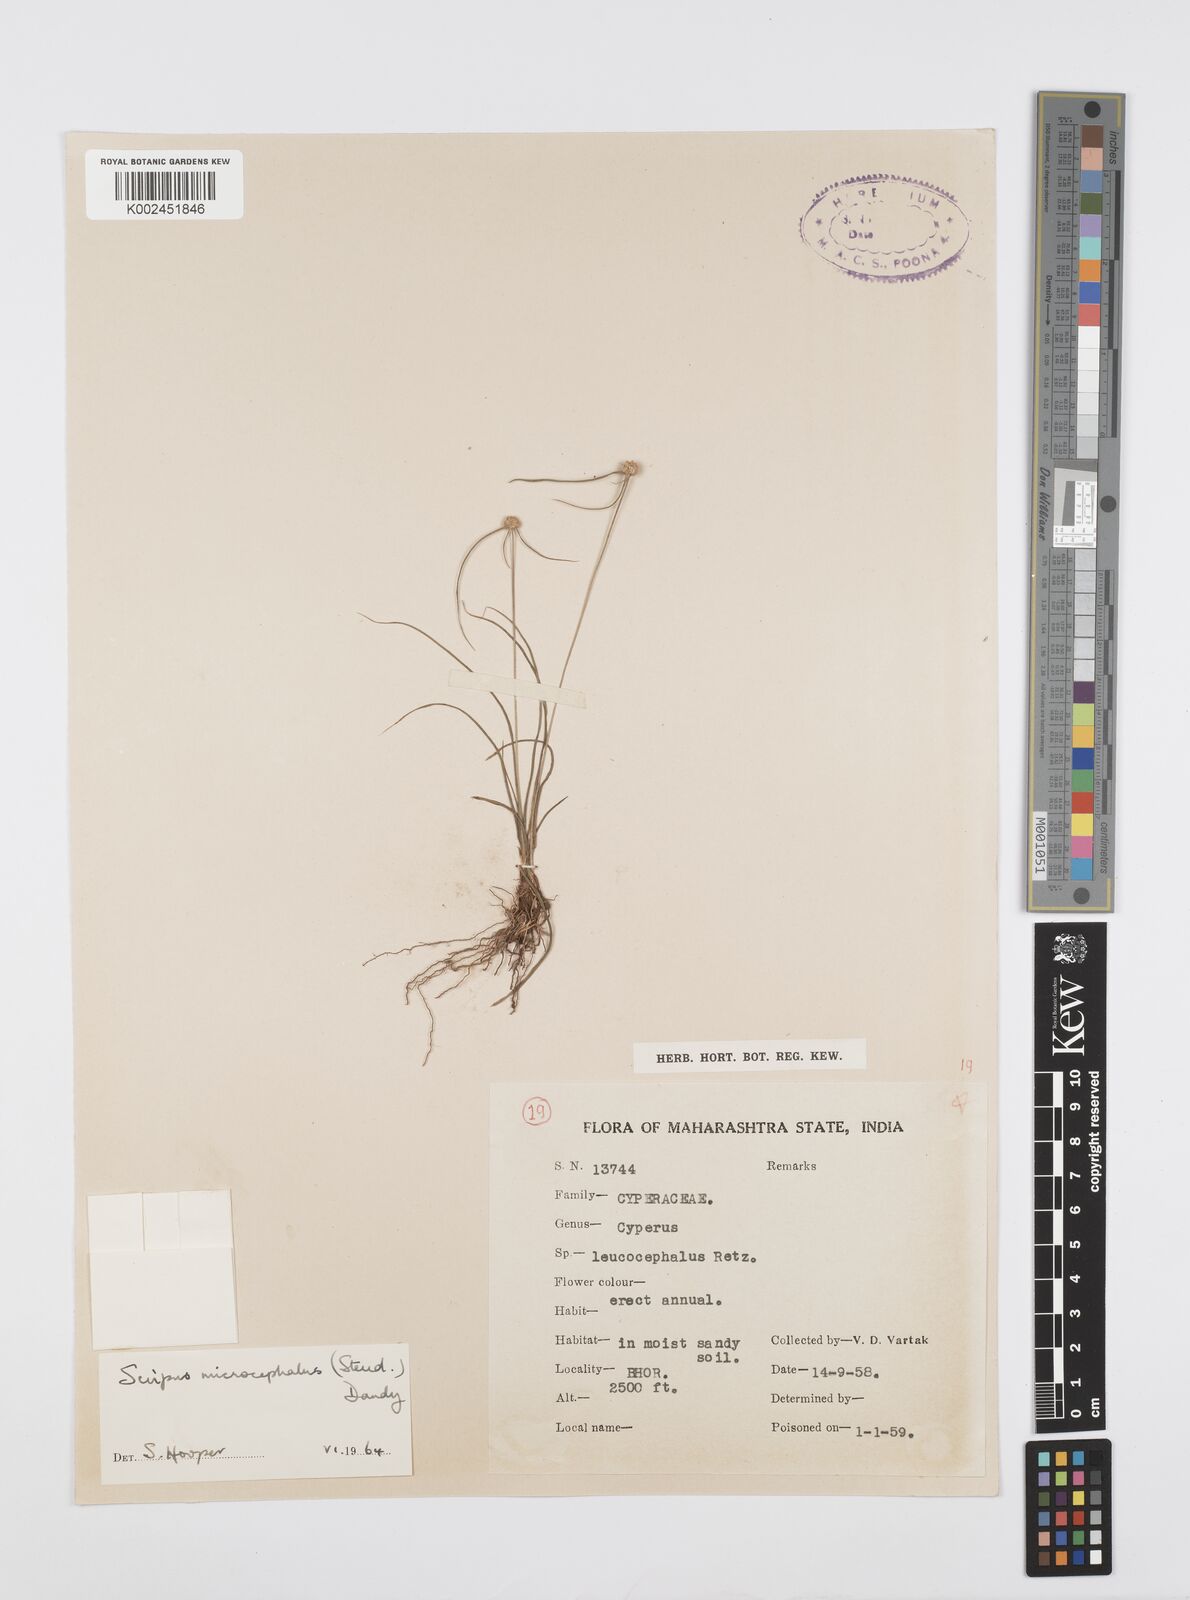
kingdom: Plantae
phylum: Tracheophyta
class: Liliopsida
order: Poales
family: Cyperaceae
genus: Cyperus
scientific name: Cyperus
